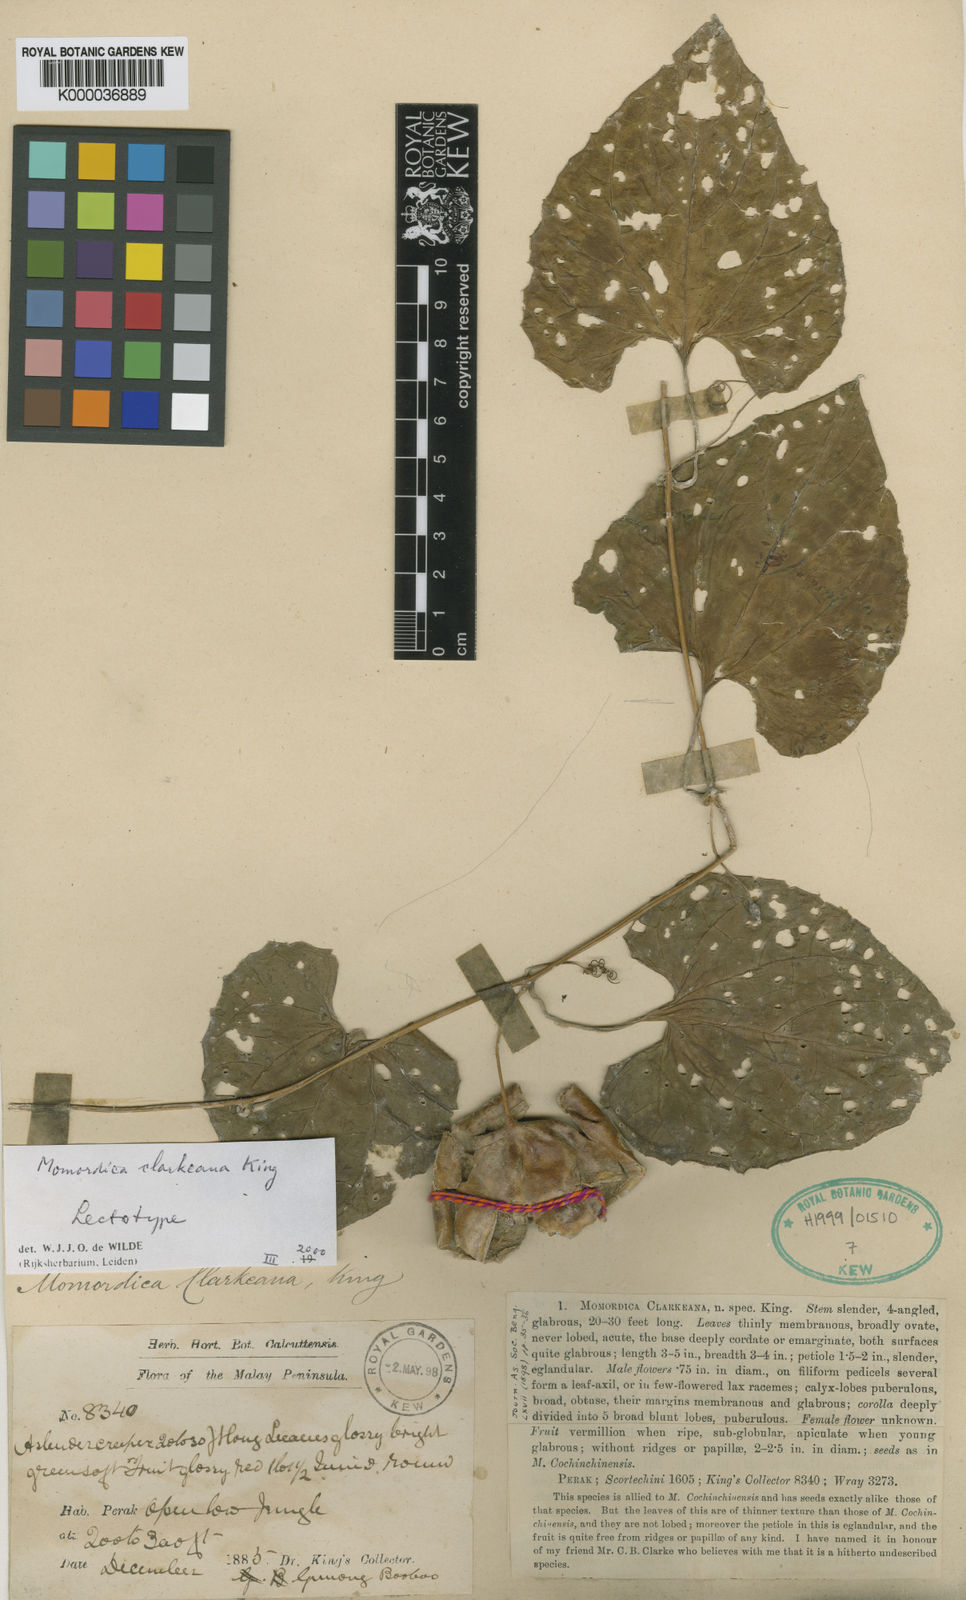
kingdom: Plantae
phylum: Tracheophyta
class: Magnoliopsida
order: Cucurbitales
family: Cucurbitaceae
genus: Momordica
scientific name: Momordica clarkeana
